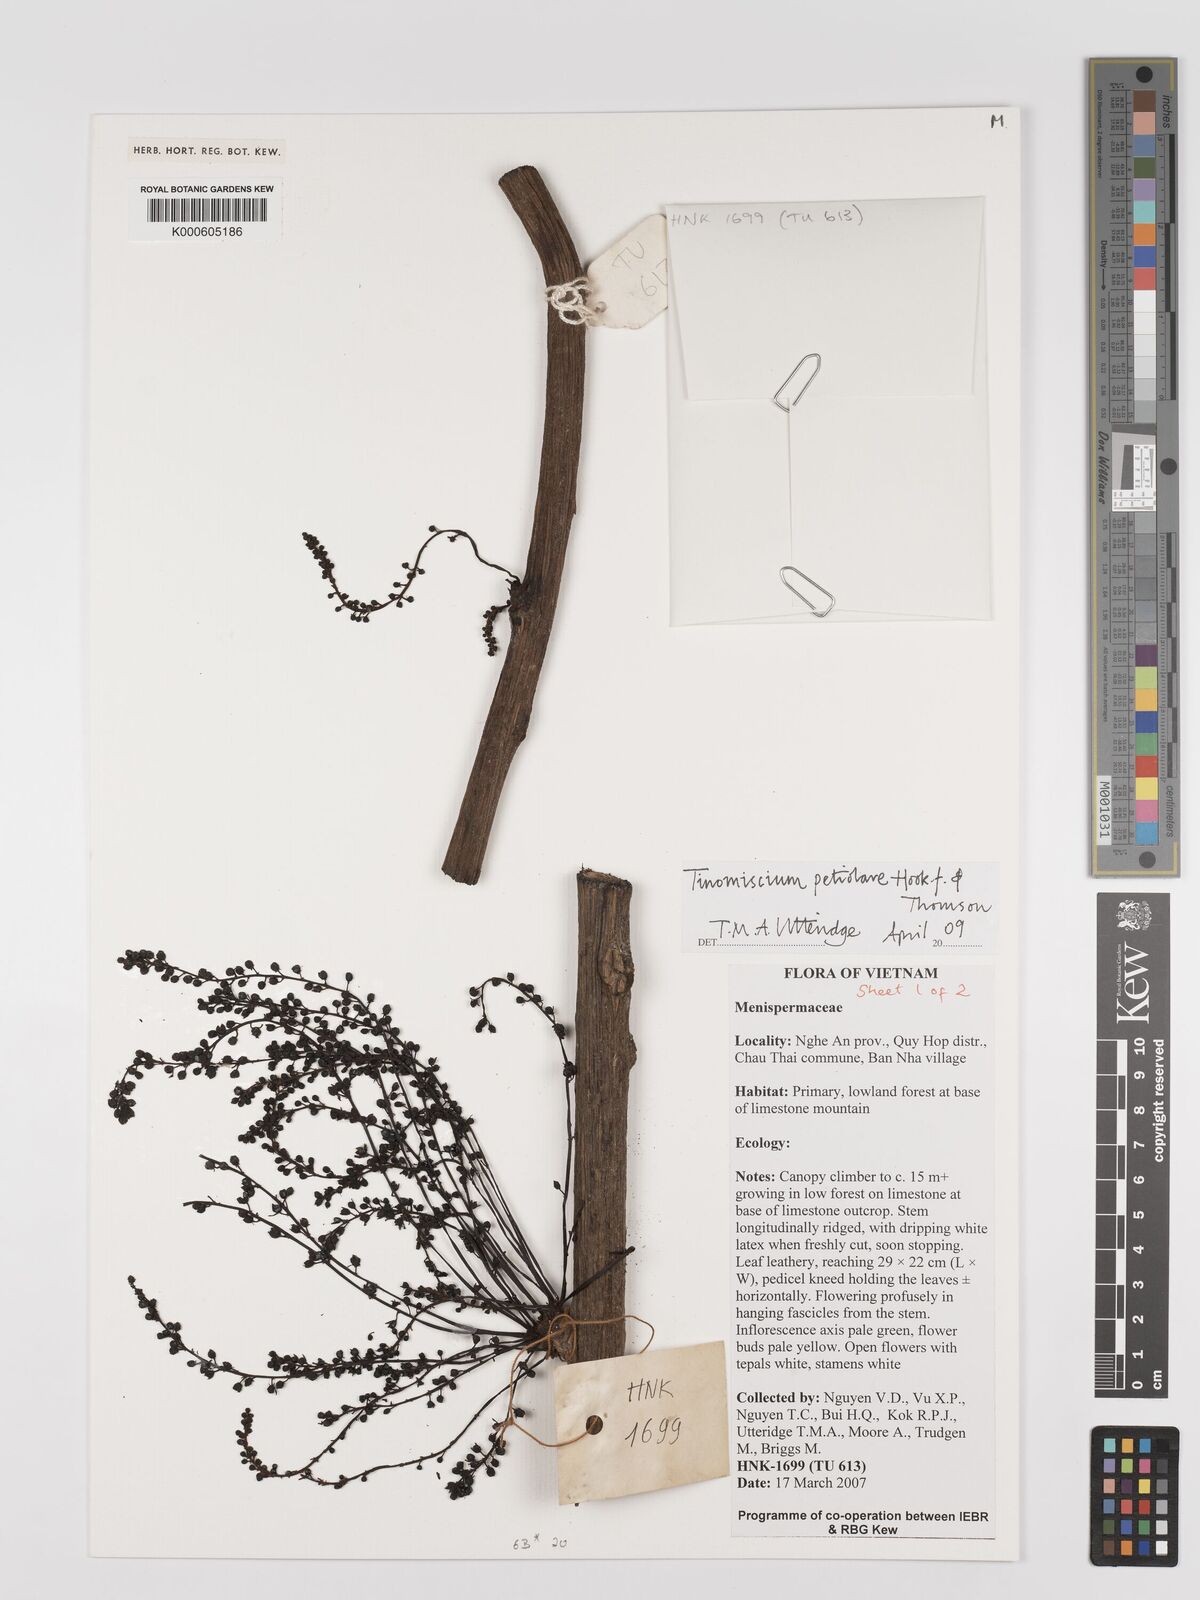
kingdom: Plantae
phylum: Tracheophyta
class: Magnoliopsida
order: Ranunculales
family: Menispermaceae
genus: Tinomiscium
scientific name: Tinomiscium petiolare
